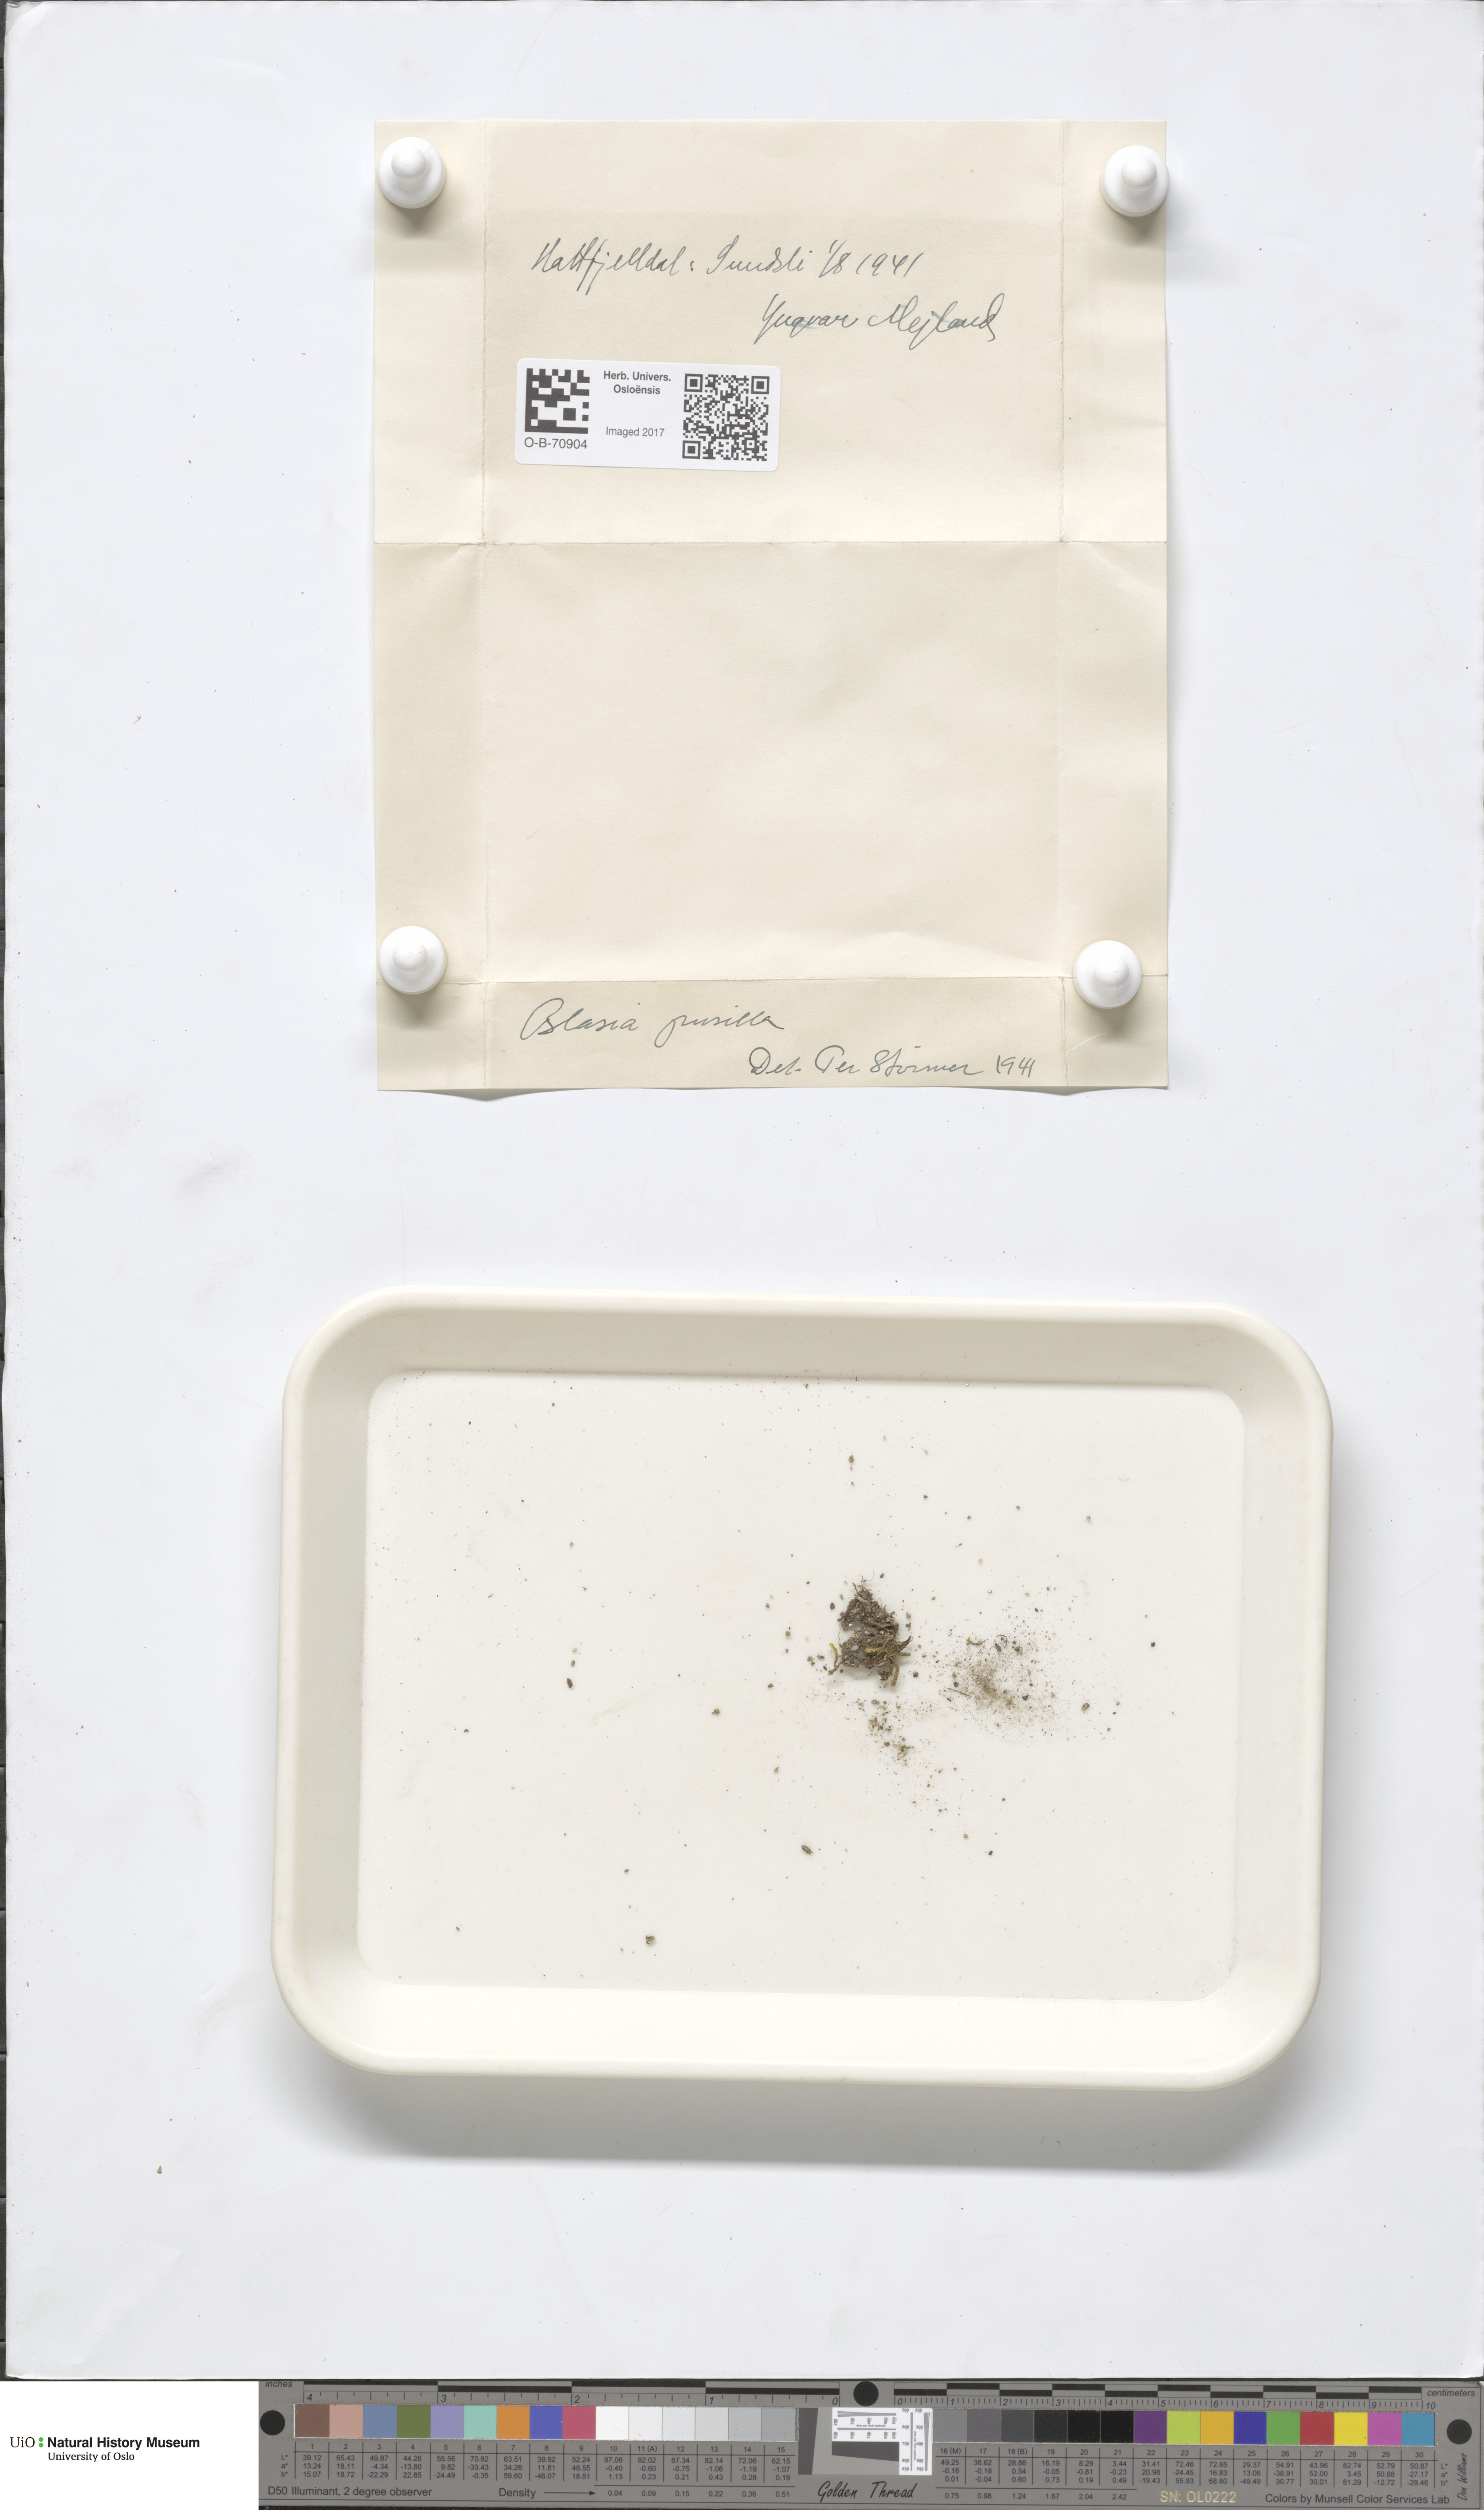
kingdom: Plantae
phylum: Marchantiophyta
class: Marchantiopsida
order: Blasiales
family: Blasiaceae
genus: Blasia
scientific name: Blasia pusilla
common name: Common kettlewort
